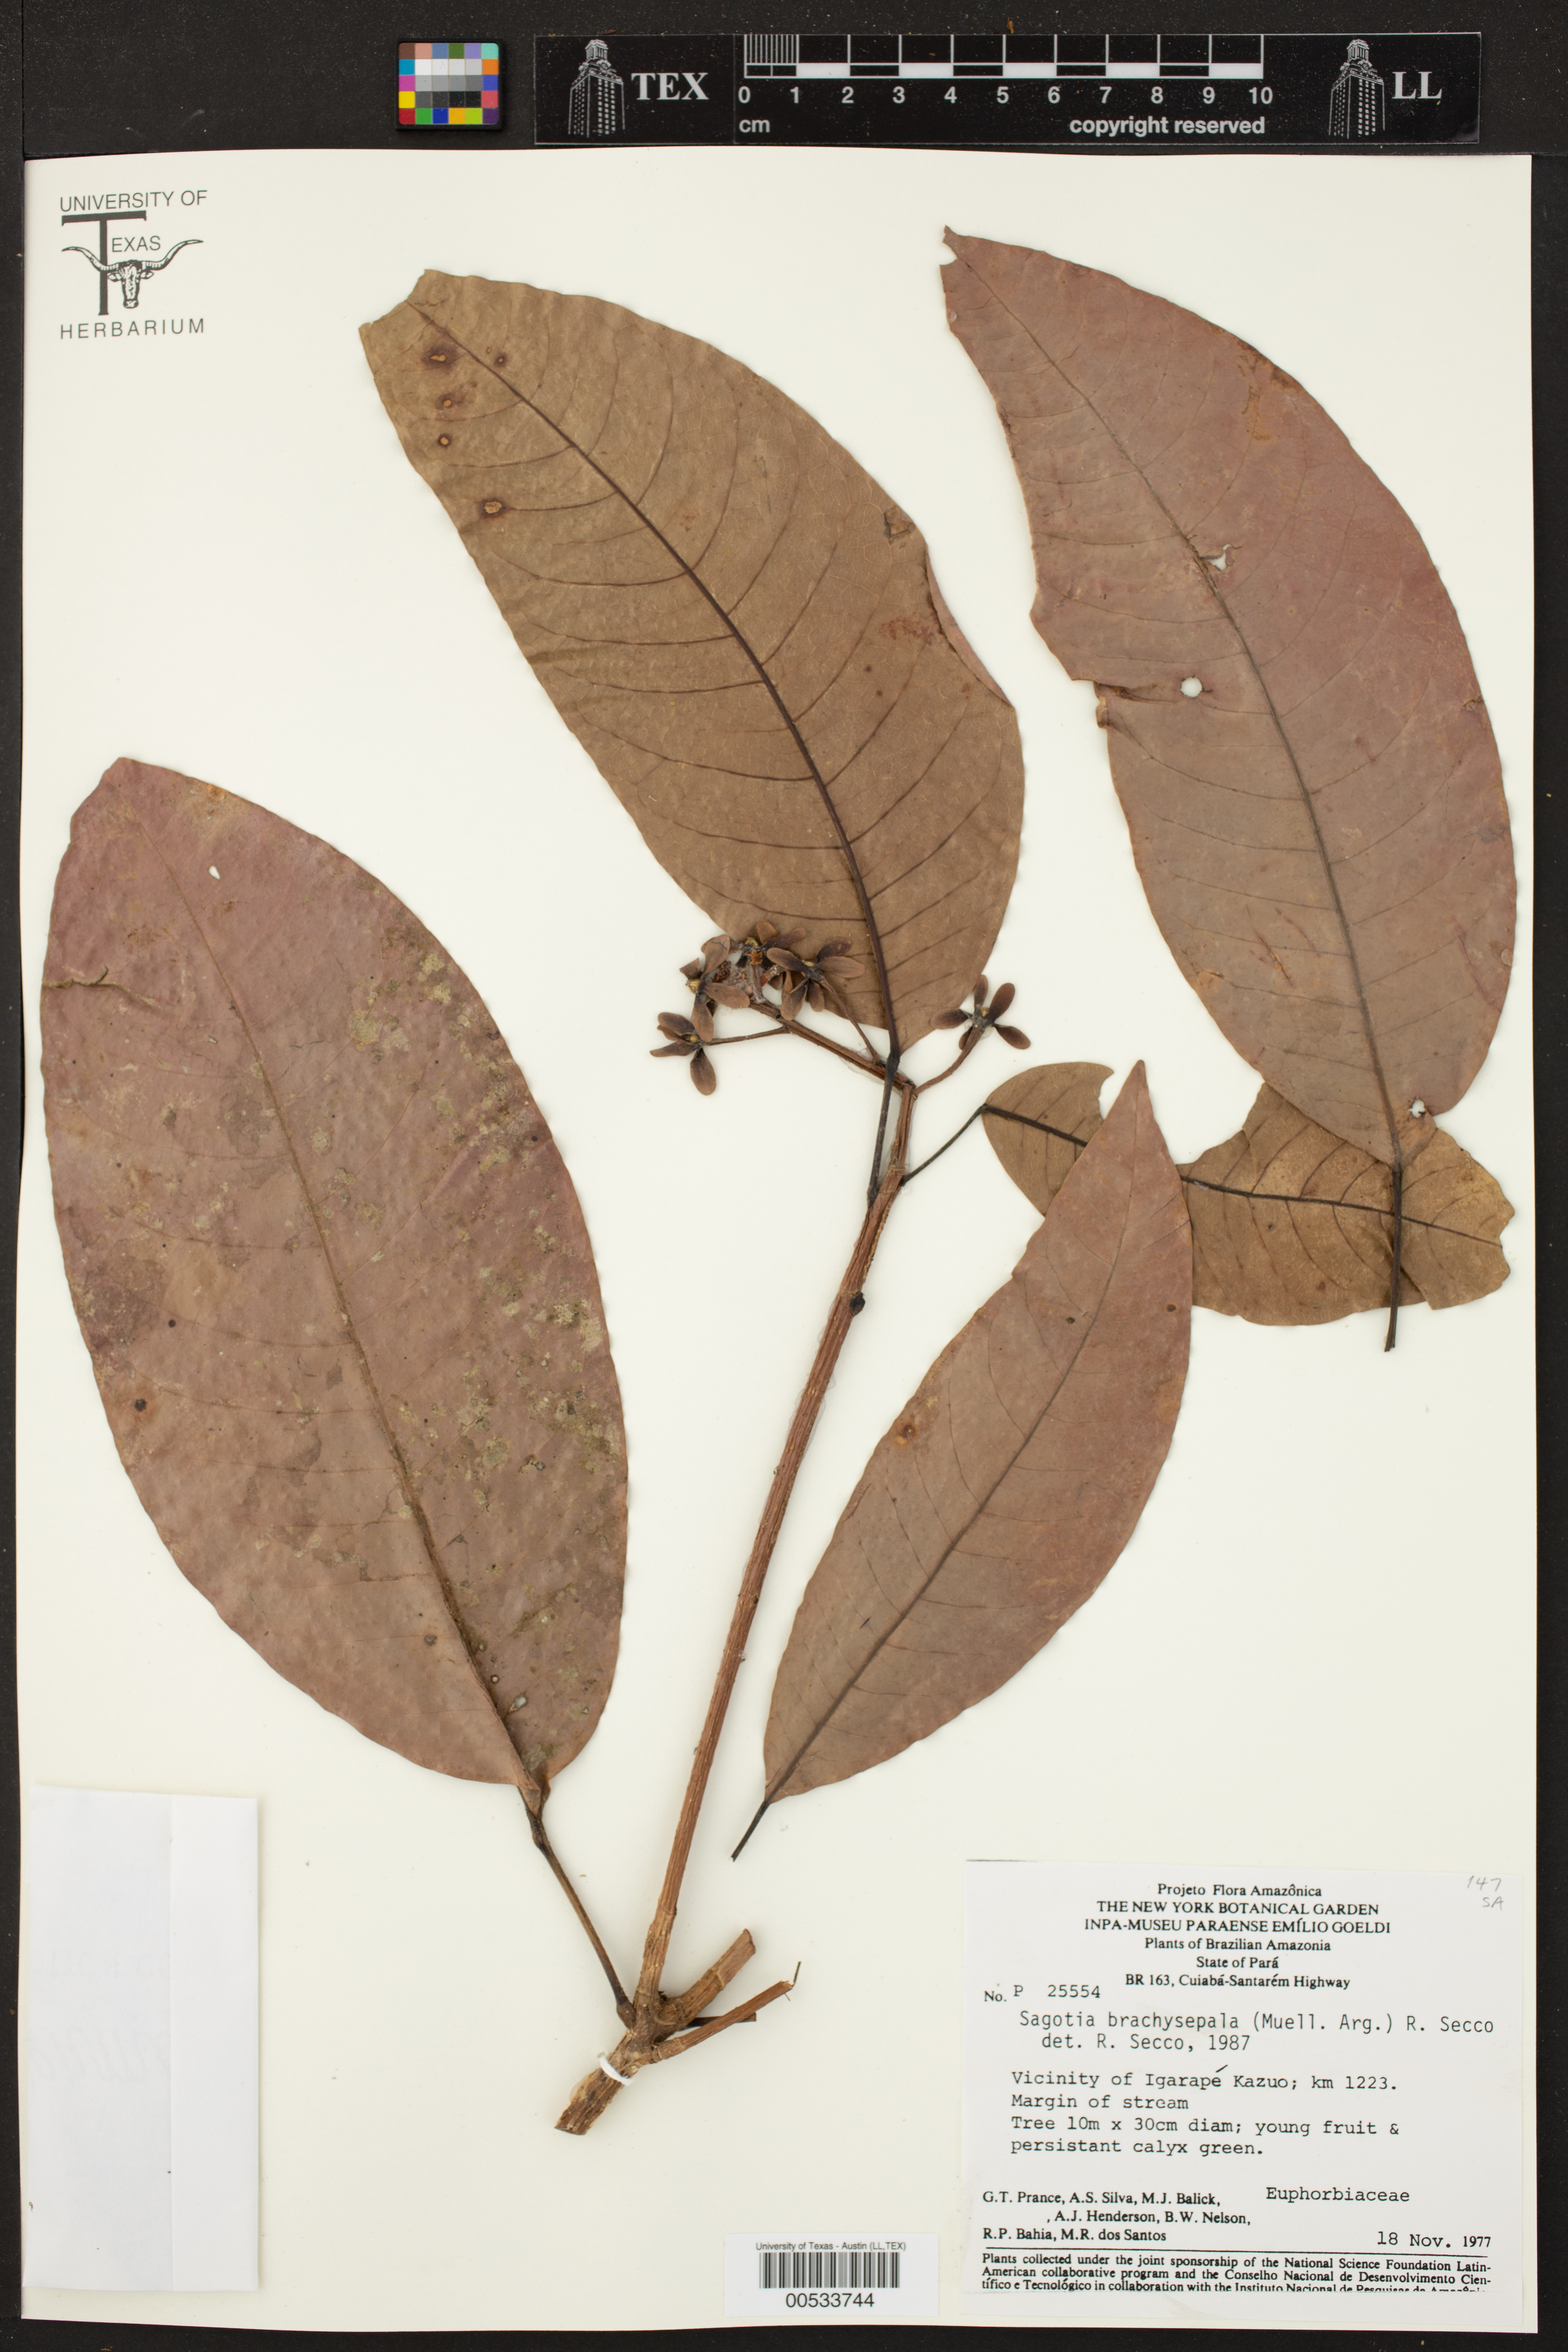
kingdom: Plantae
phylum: Tracheophyta
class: Magnoliopsida
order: Malpighiales
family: Euphorbiaceae
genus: Sagotia
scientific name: Sagotia brachysepala
